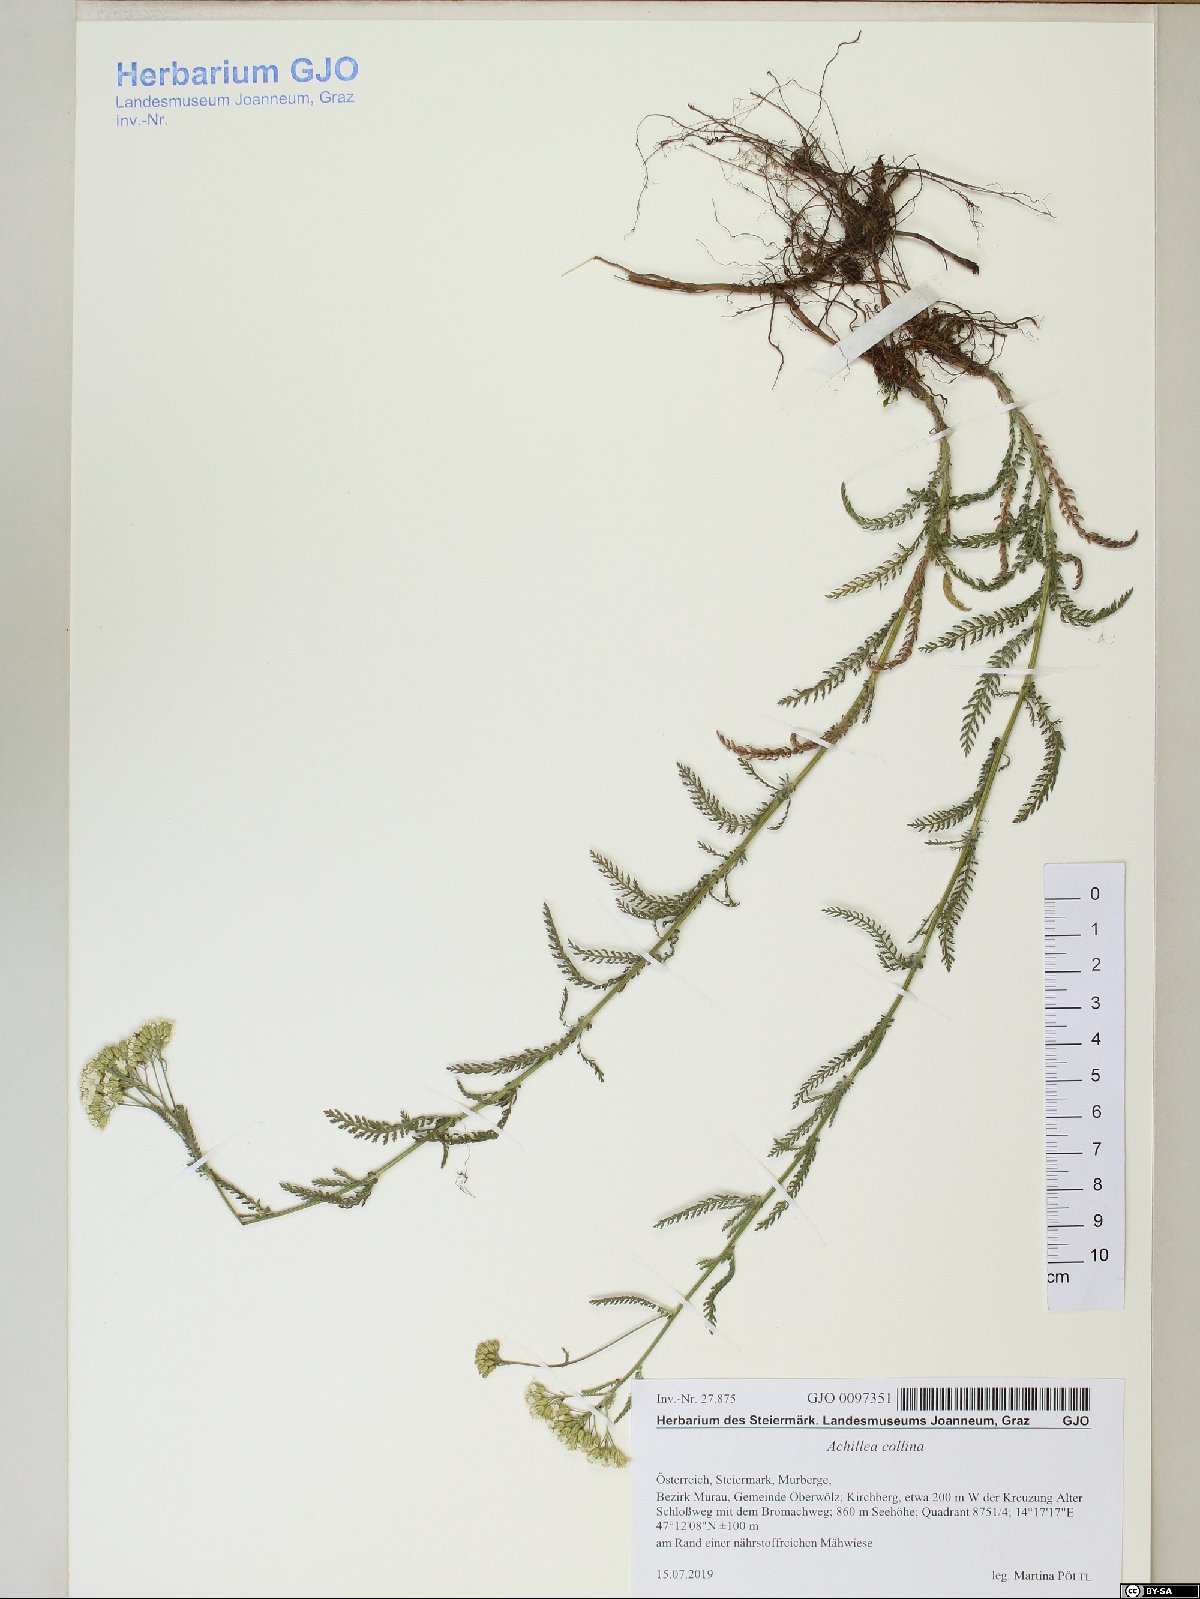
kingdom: Plantae
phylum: Tracheophyta
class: Magnoliopsida
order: Asterales
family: Asteraceae
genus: Achillea
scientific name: Achillea collina
